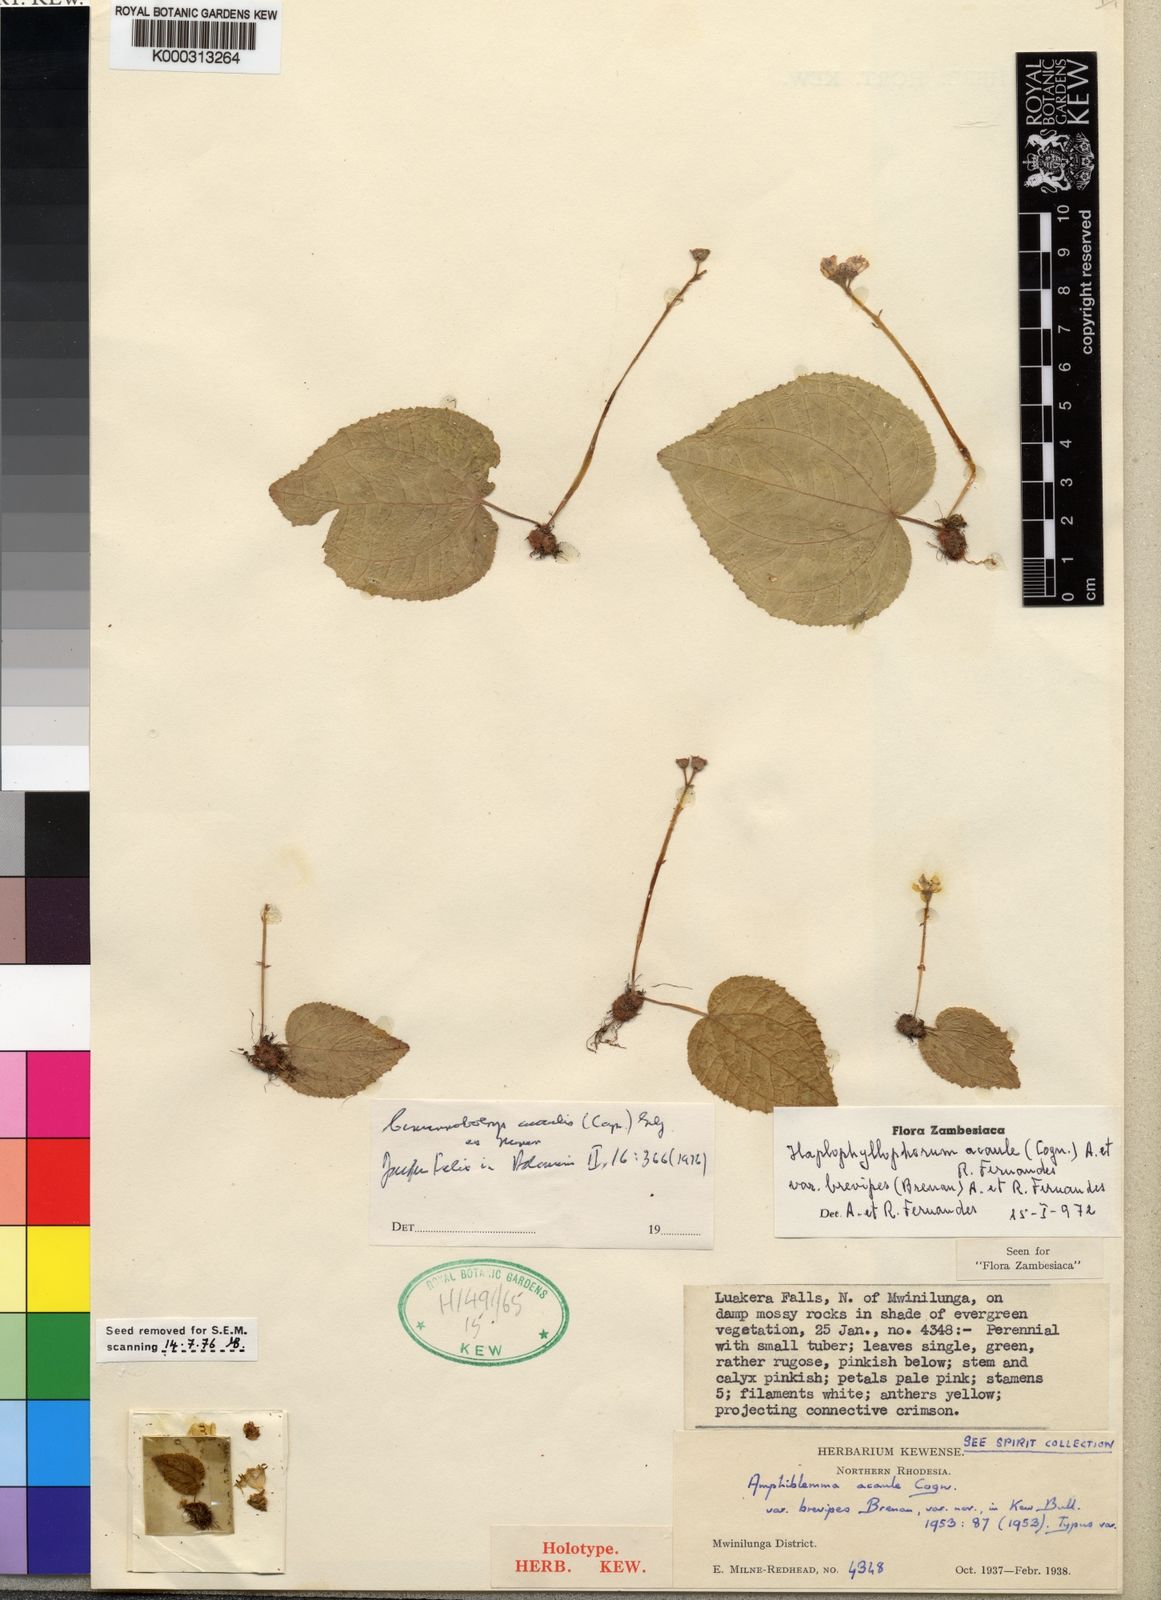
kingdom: Plantae
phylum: Tracheophyta
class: Magnoliopsida
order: Myrtales
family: Melastomataceae
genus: Cincinnobotrys
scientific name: Cincinnobotrys acaulis
